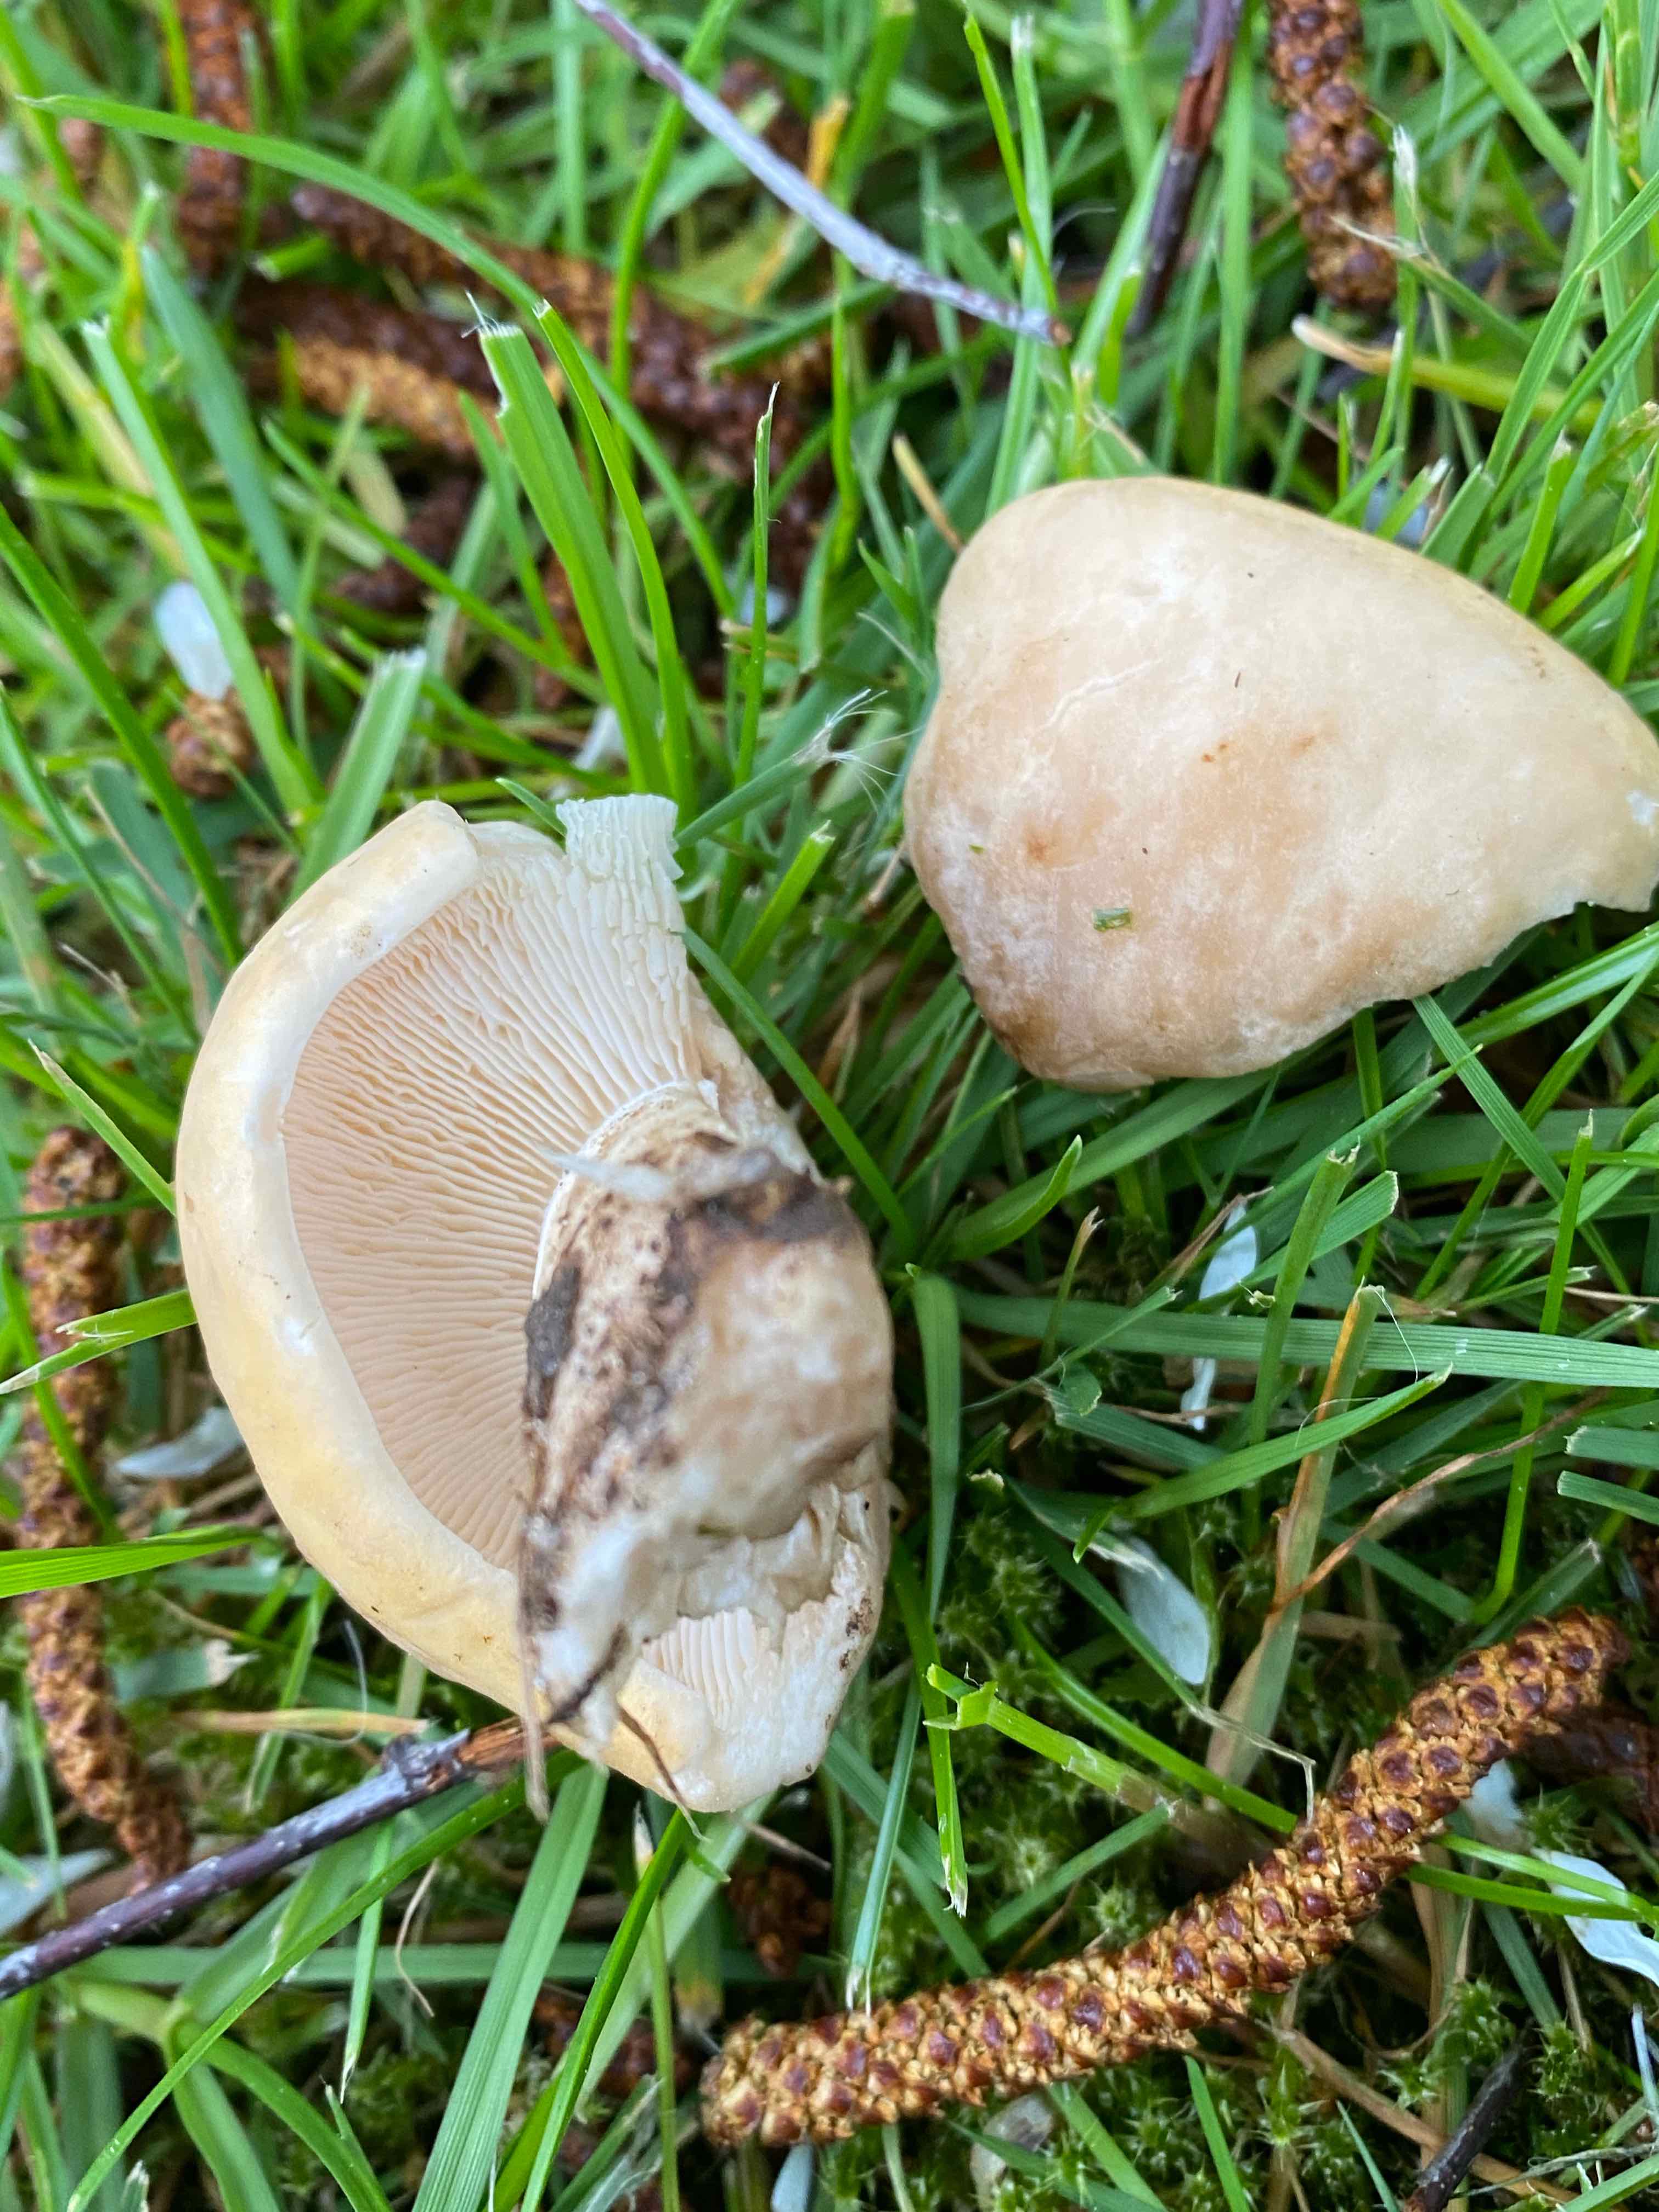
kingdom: Fungi
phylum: Basidiomycota
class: Agaricomycetes
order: Agaricales
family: Lyophyllaceae
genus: Calocybe
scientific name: Calocybe gambosa
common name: vårmusseron
